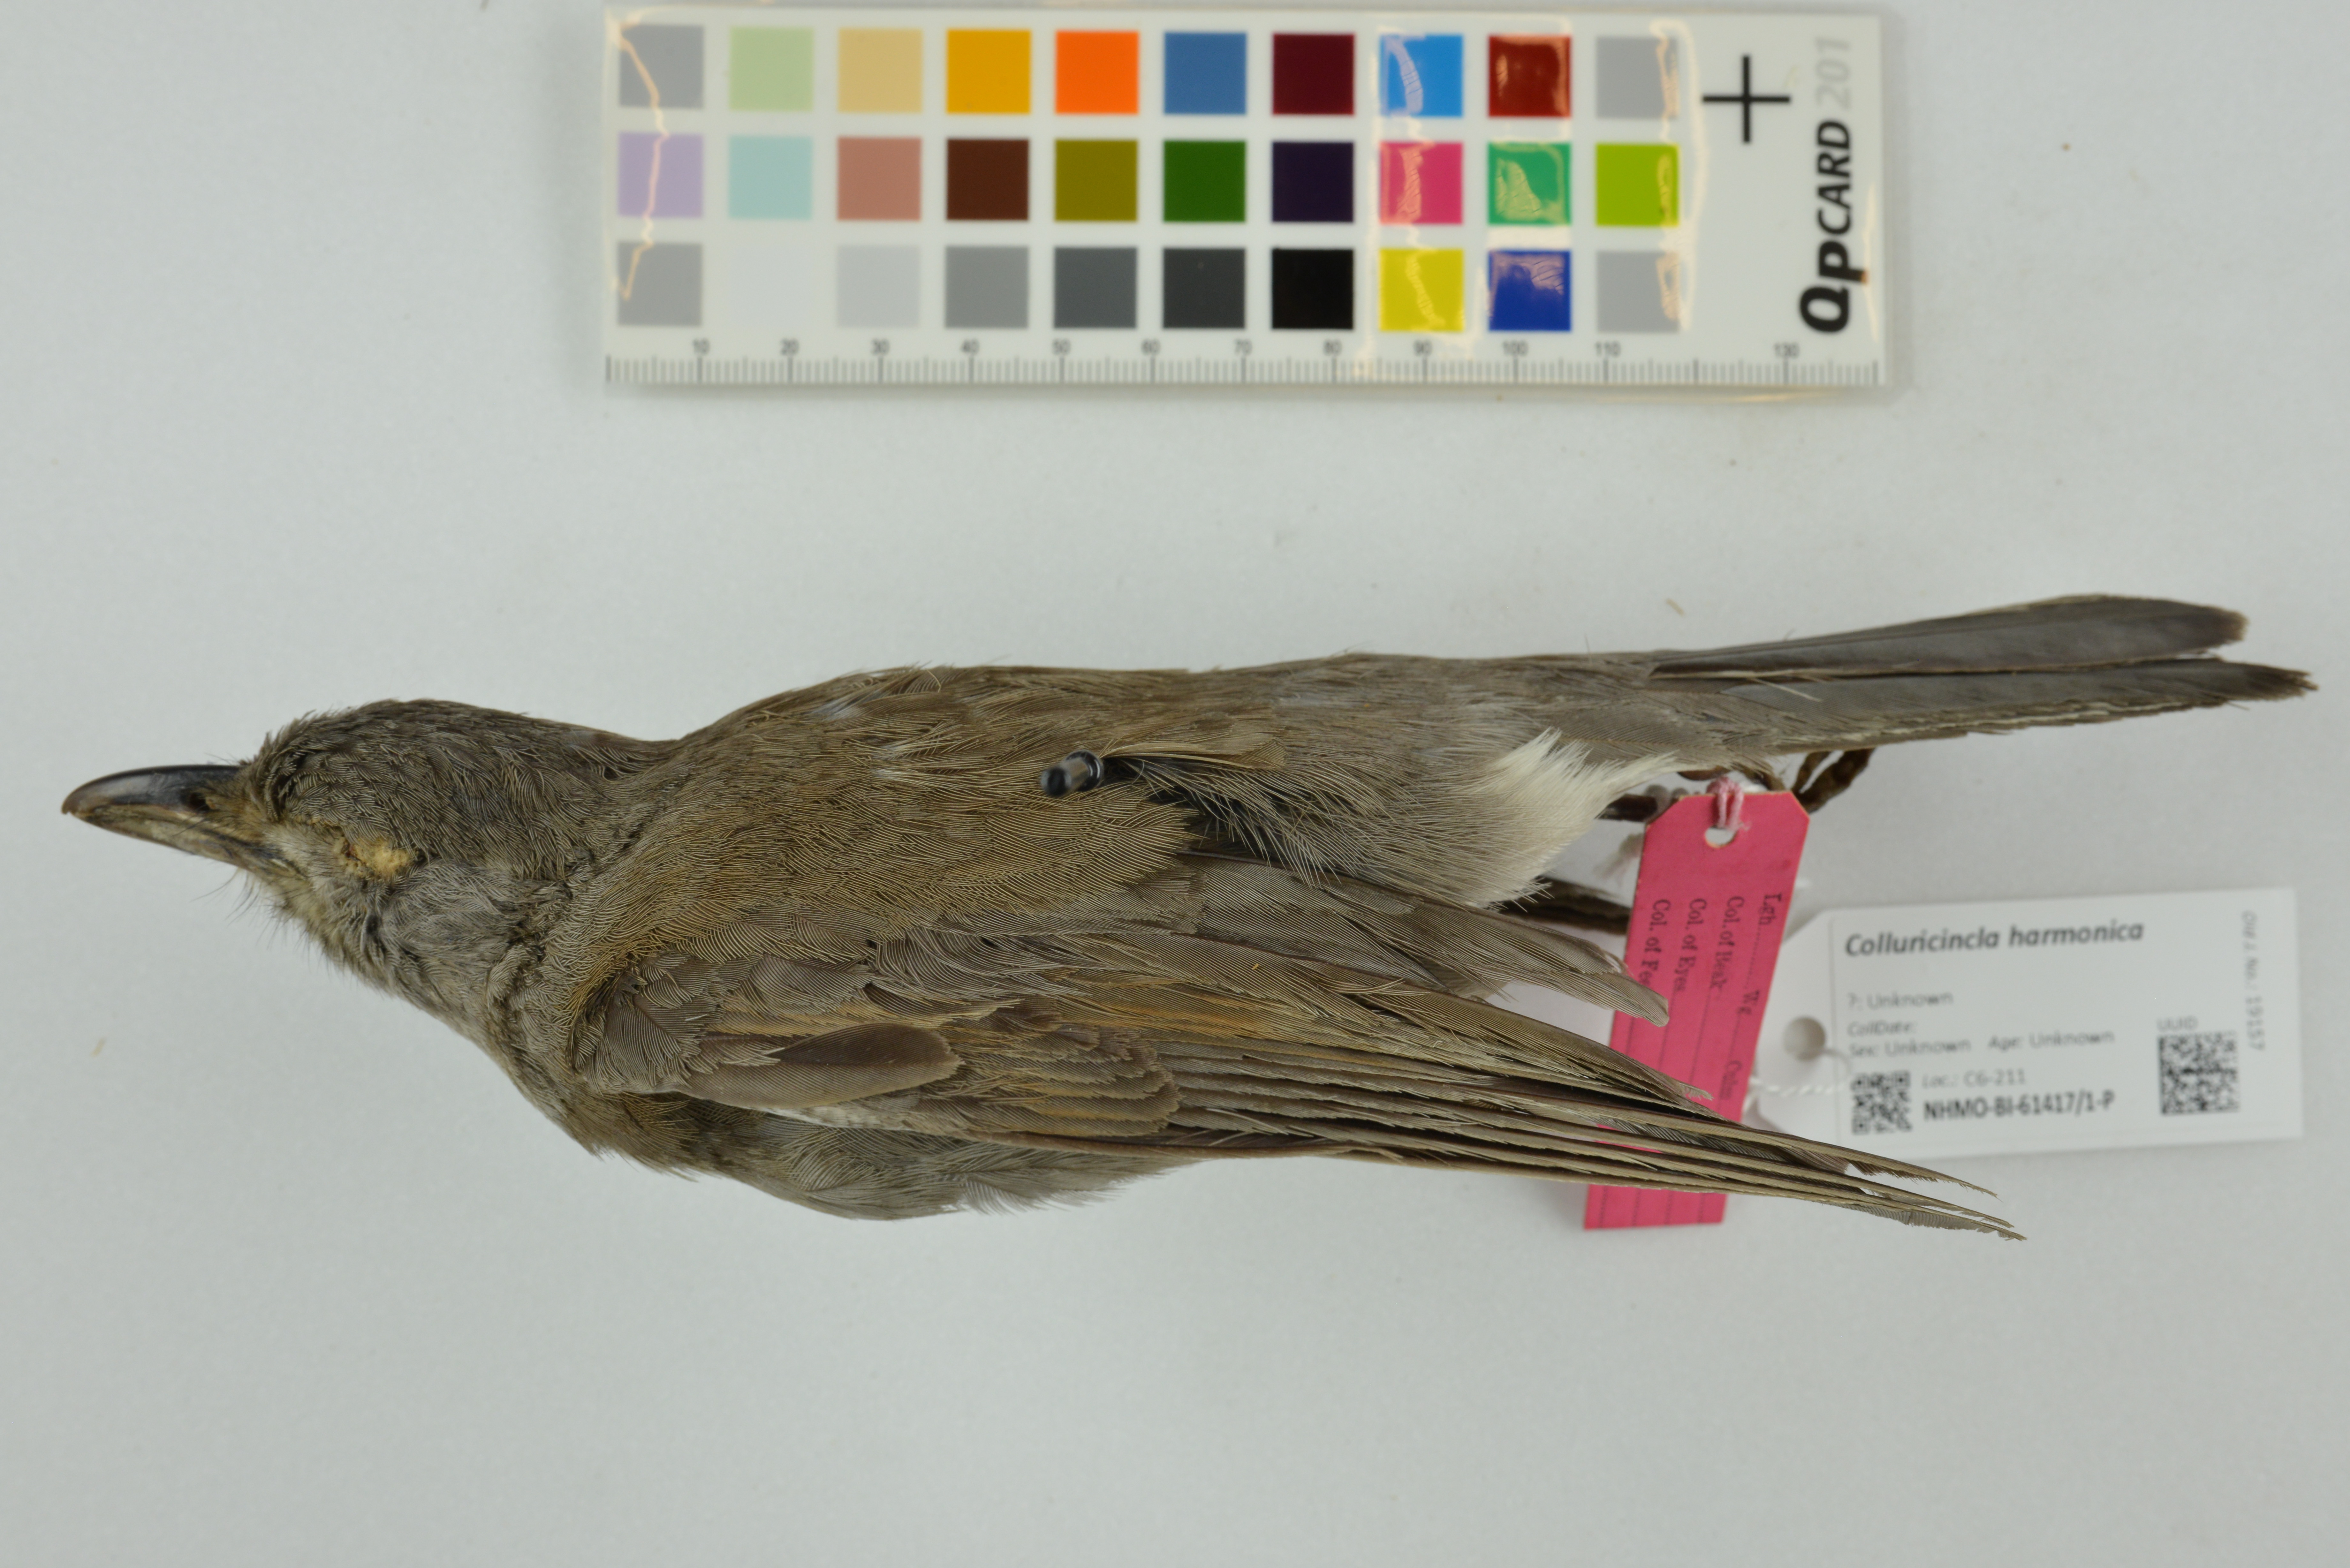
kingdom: Animalia
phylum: Chordata
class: Aves
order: Passeriformes
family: Pachycephalidae
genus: Colluricincla
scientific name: Colluricincla harmonica
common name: Grey shrikethrush
